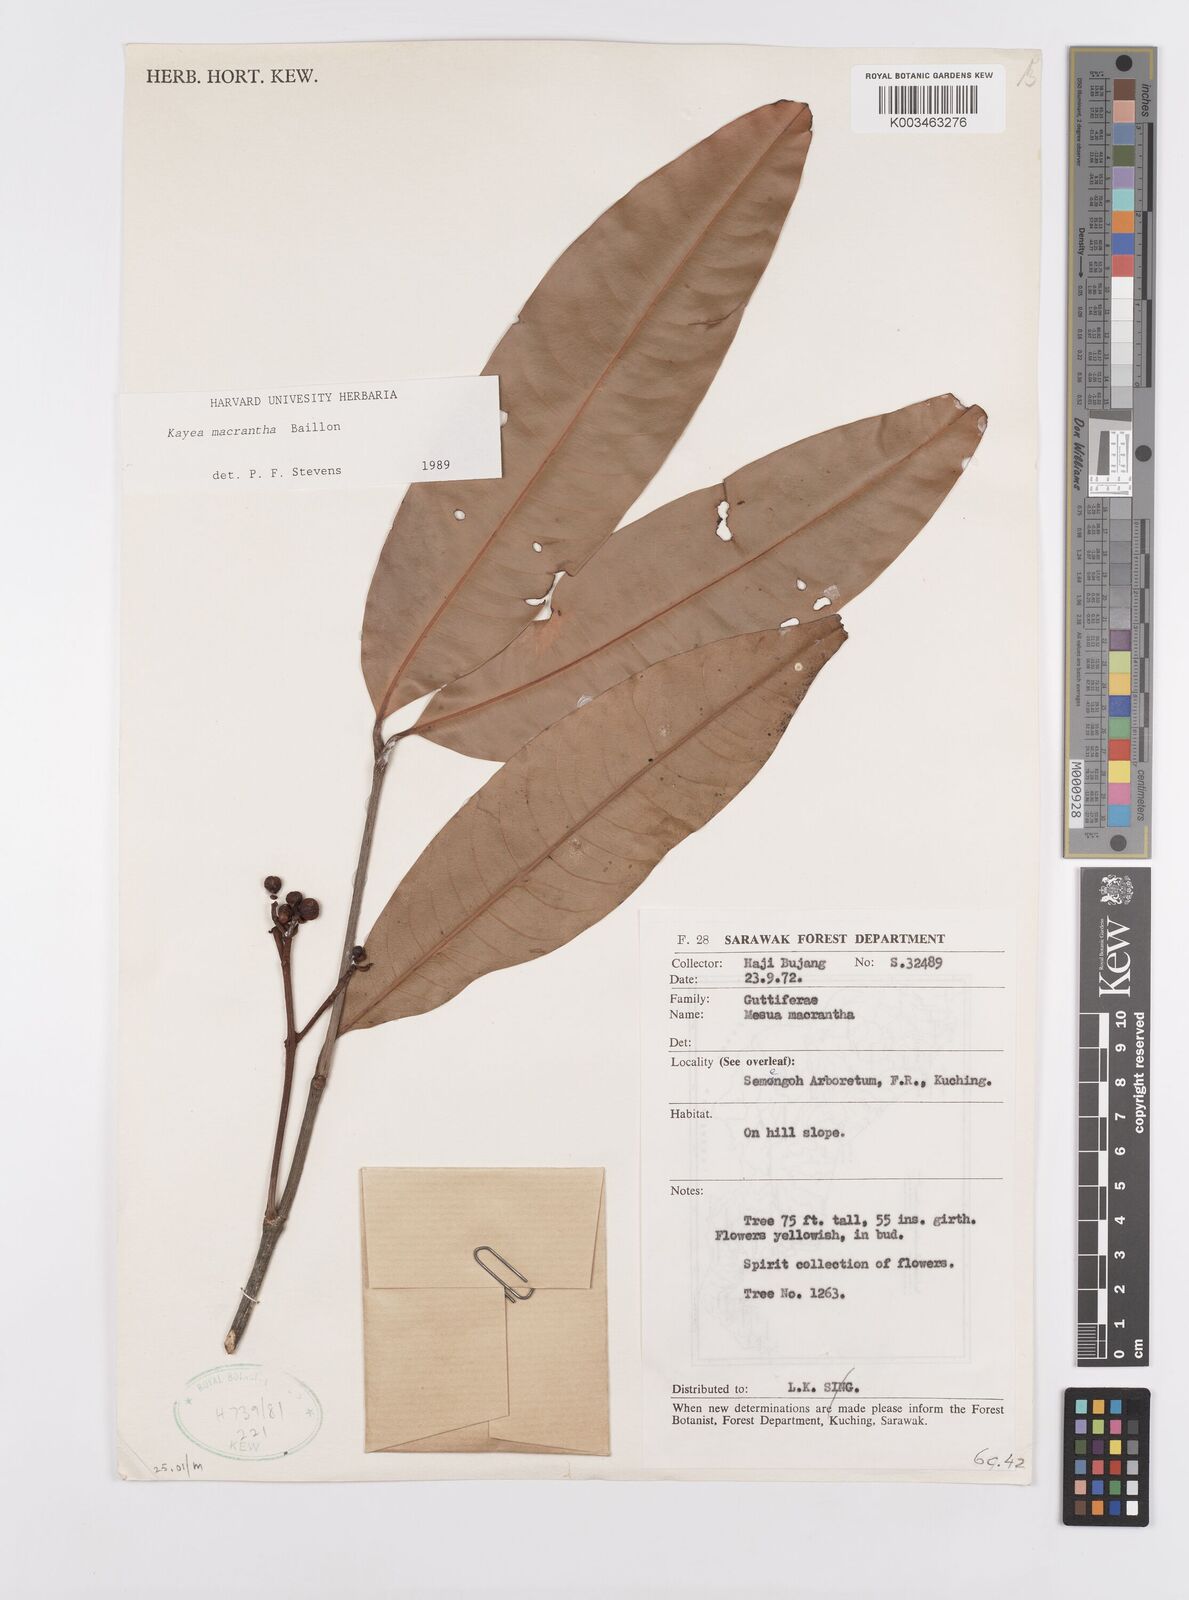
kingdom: Plantae
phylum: Tracheophyta
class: Magnoliopsida
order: Malpighiales
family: Calophyllaceae
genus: Kayea
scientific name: Kayea macrantha
